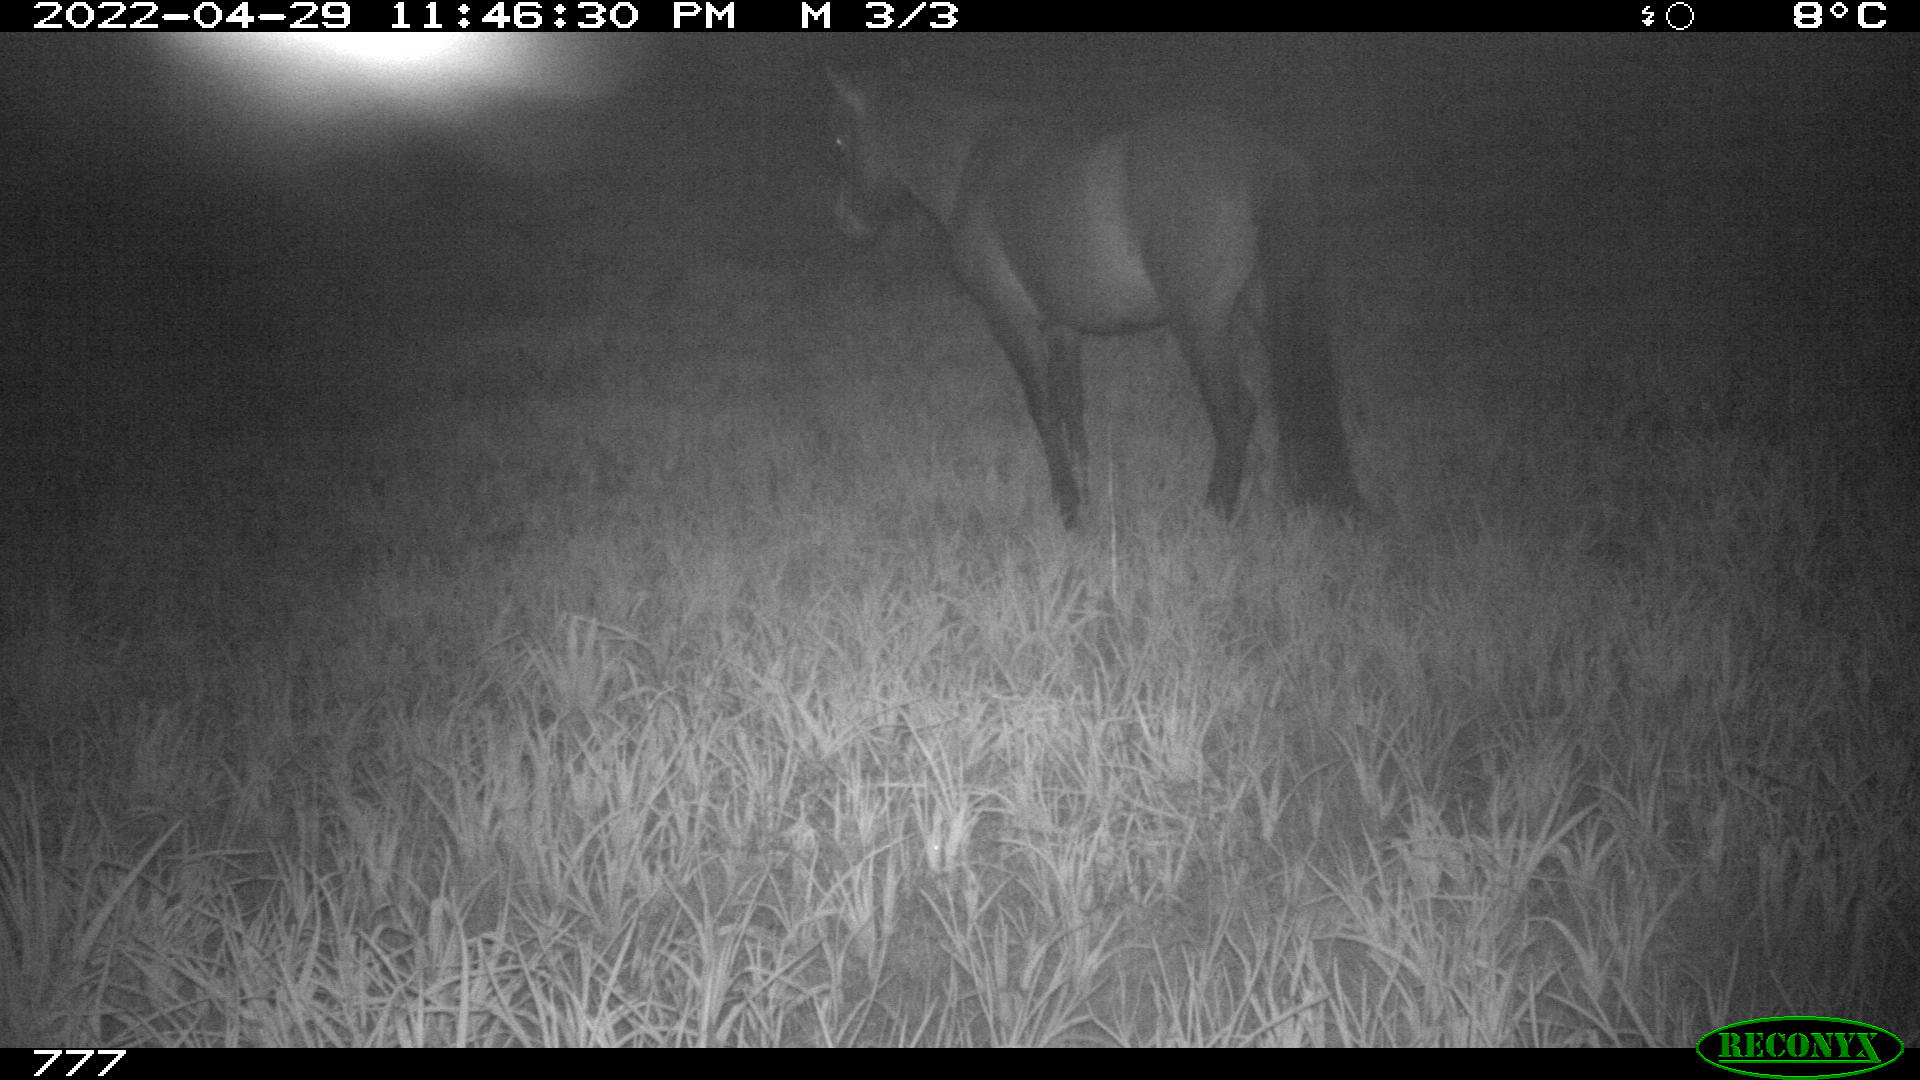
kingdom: Animalia
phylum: Chordata
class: Mammalia
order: Perissodactyla
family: Equidae
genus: Equus
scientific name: Equus caballus
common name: Horse
